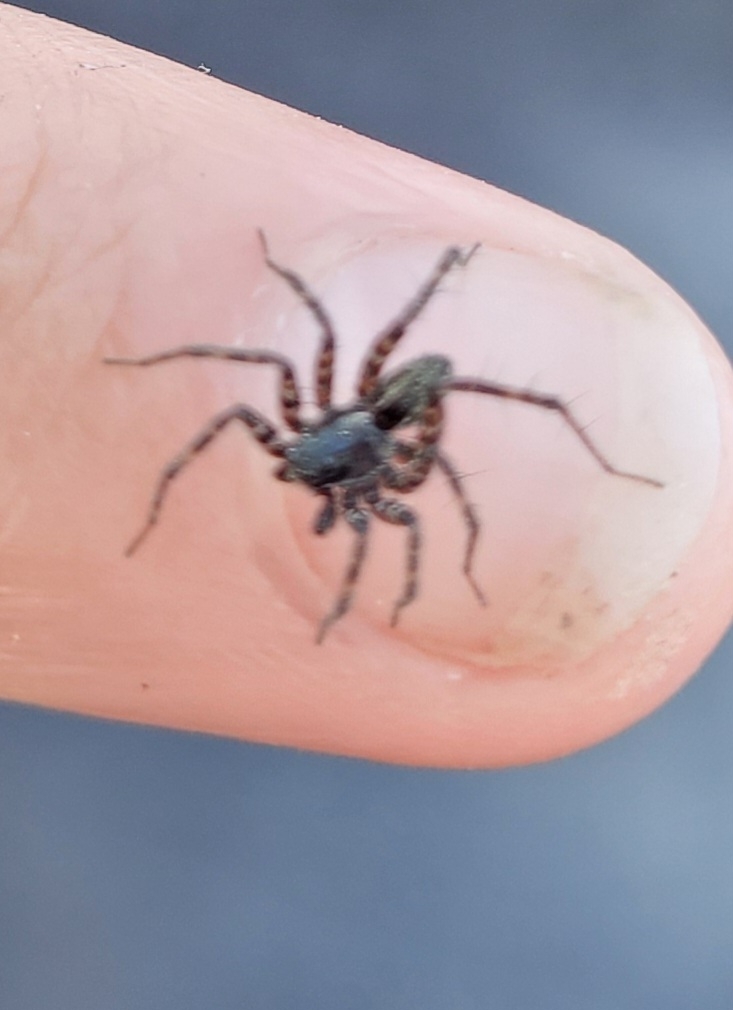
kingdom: Animalia
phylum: Arthropoda
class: Arachnida
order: Araneae
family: Lycosidae
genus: Pardosa
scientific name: Pardosa prativaga
